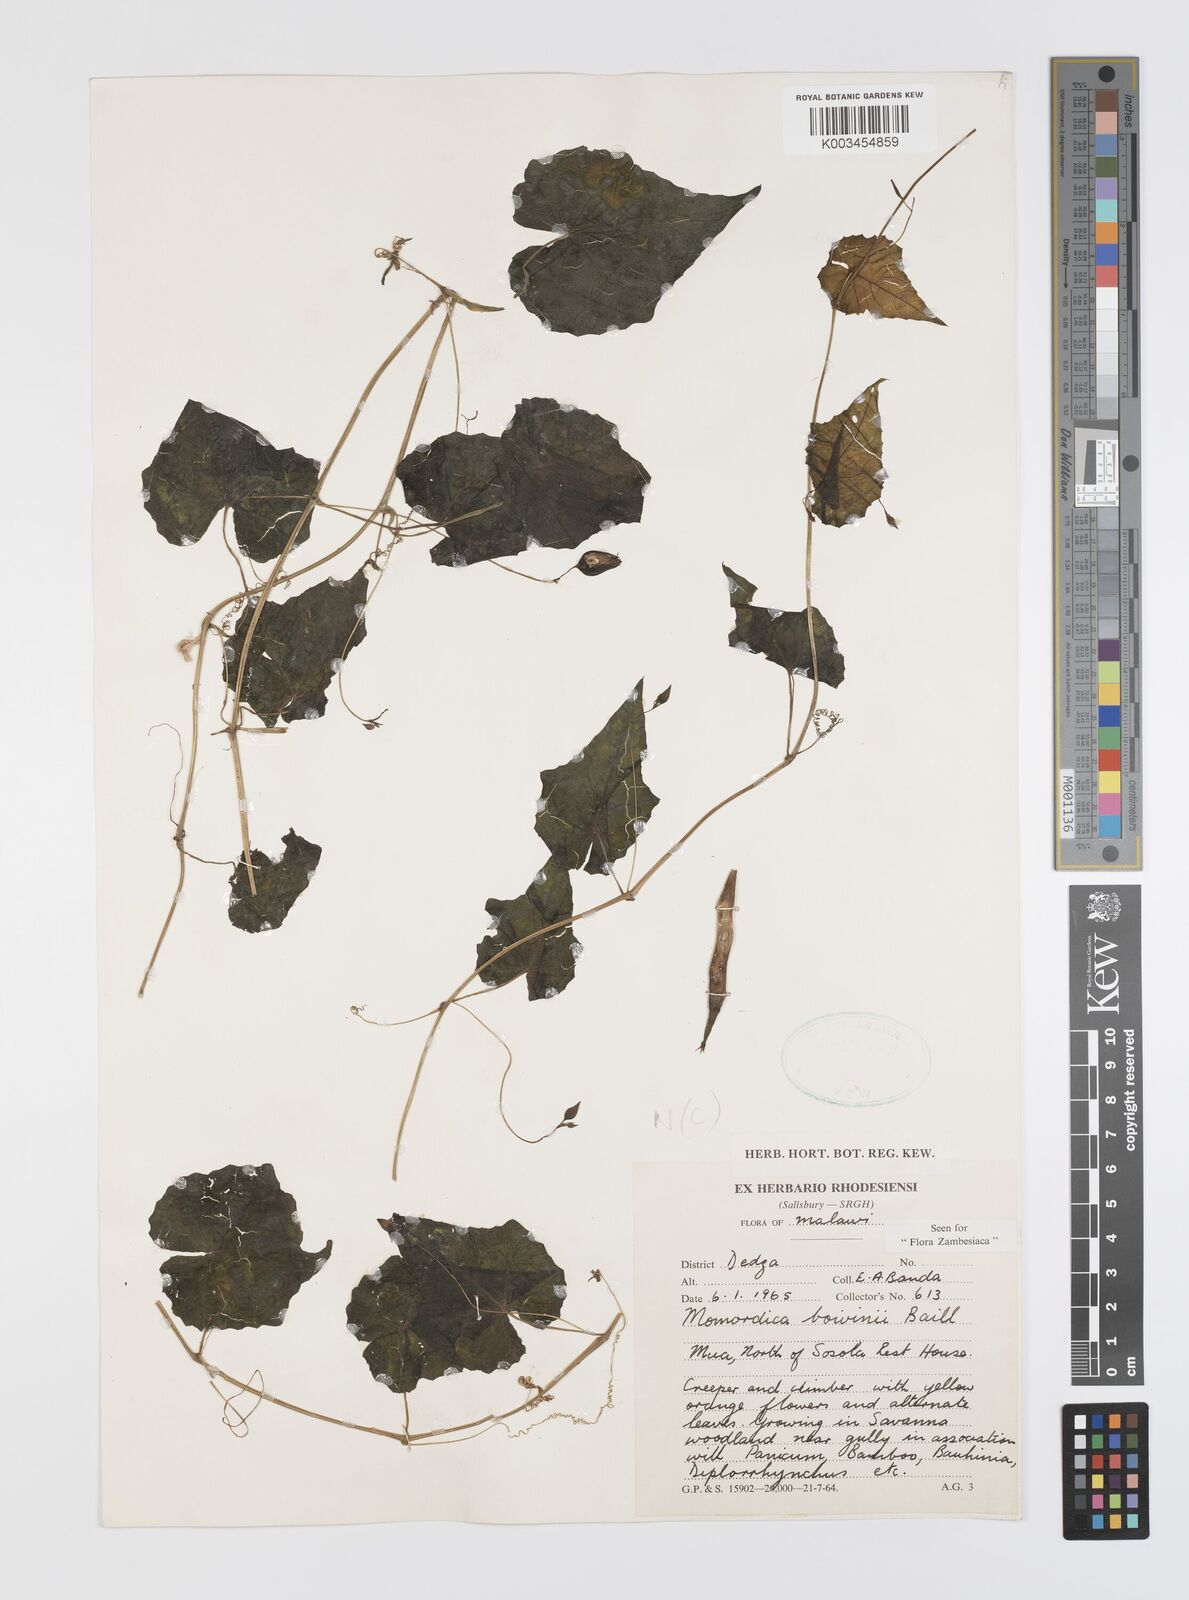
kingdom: Plantae
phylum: Tracheophyta
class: Magnoliopsida
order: Cucurbitales
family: Cucurbitaceae
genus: Momordica
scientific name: Momordica boivinii
